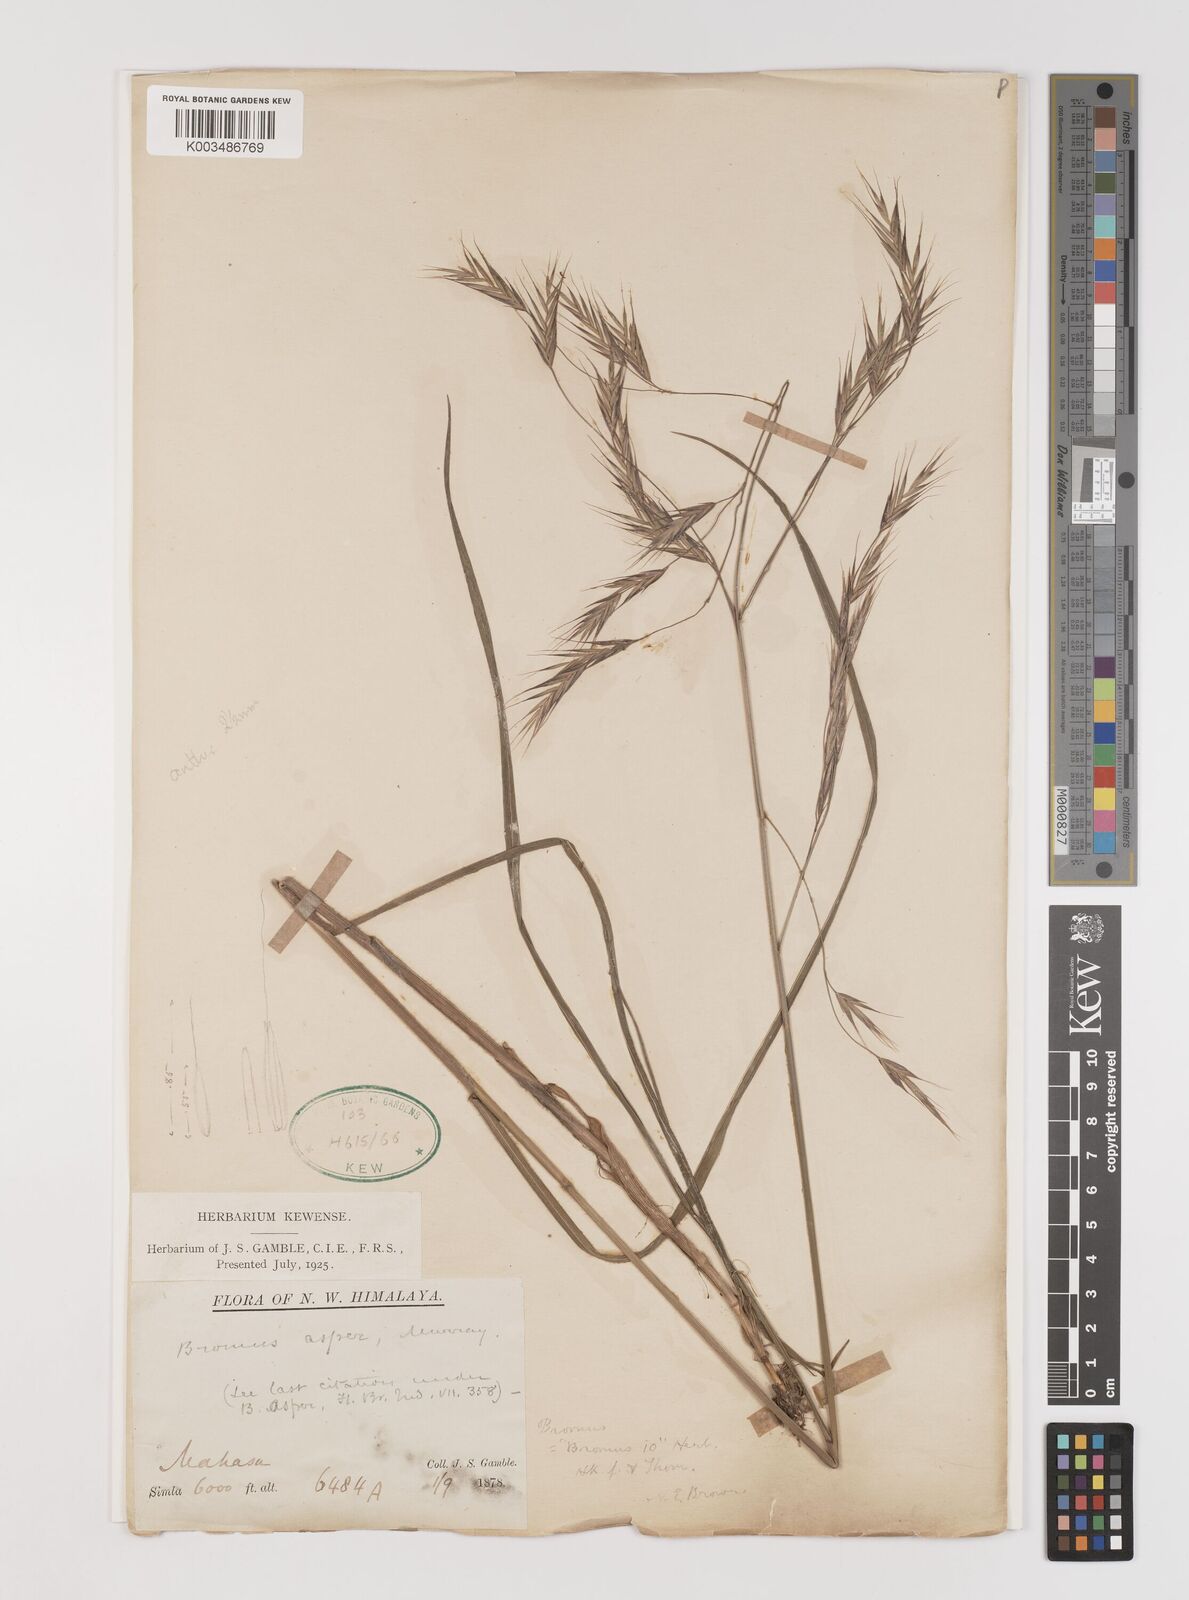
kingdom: Plantae
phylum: Tracheophyta
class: Liliopsida
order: Poales
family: Poaceae
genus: Brachypodium
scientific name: Brachypodium retusum
